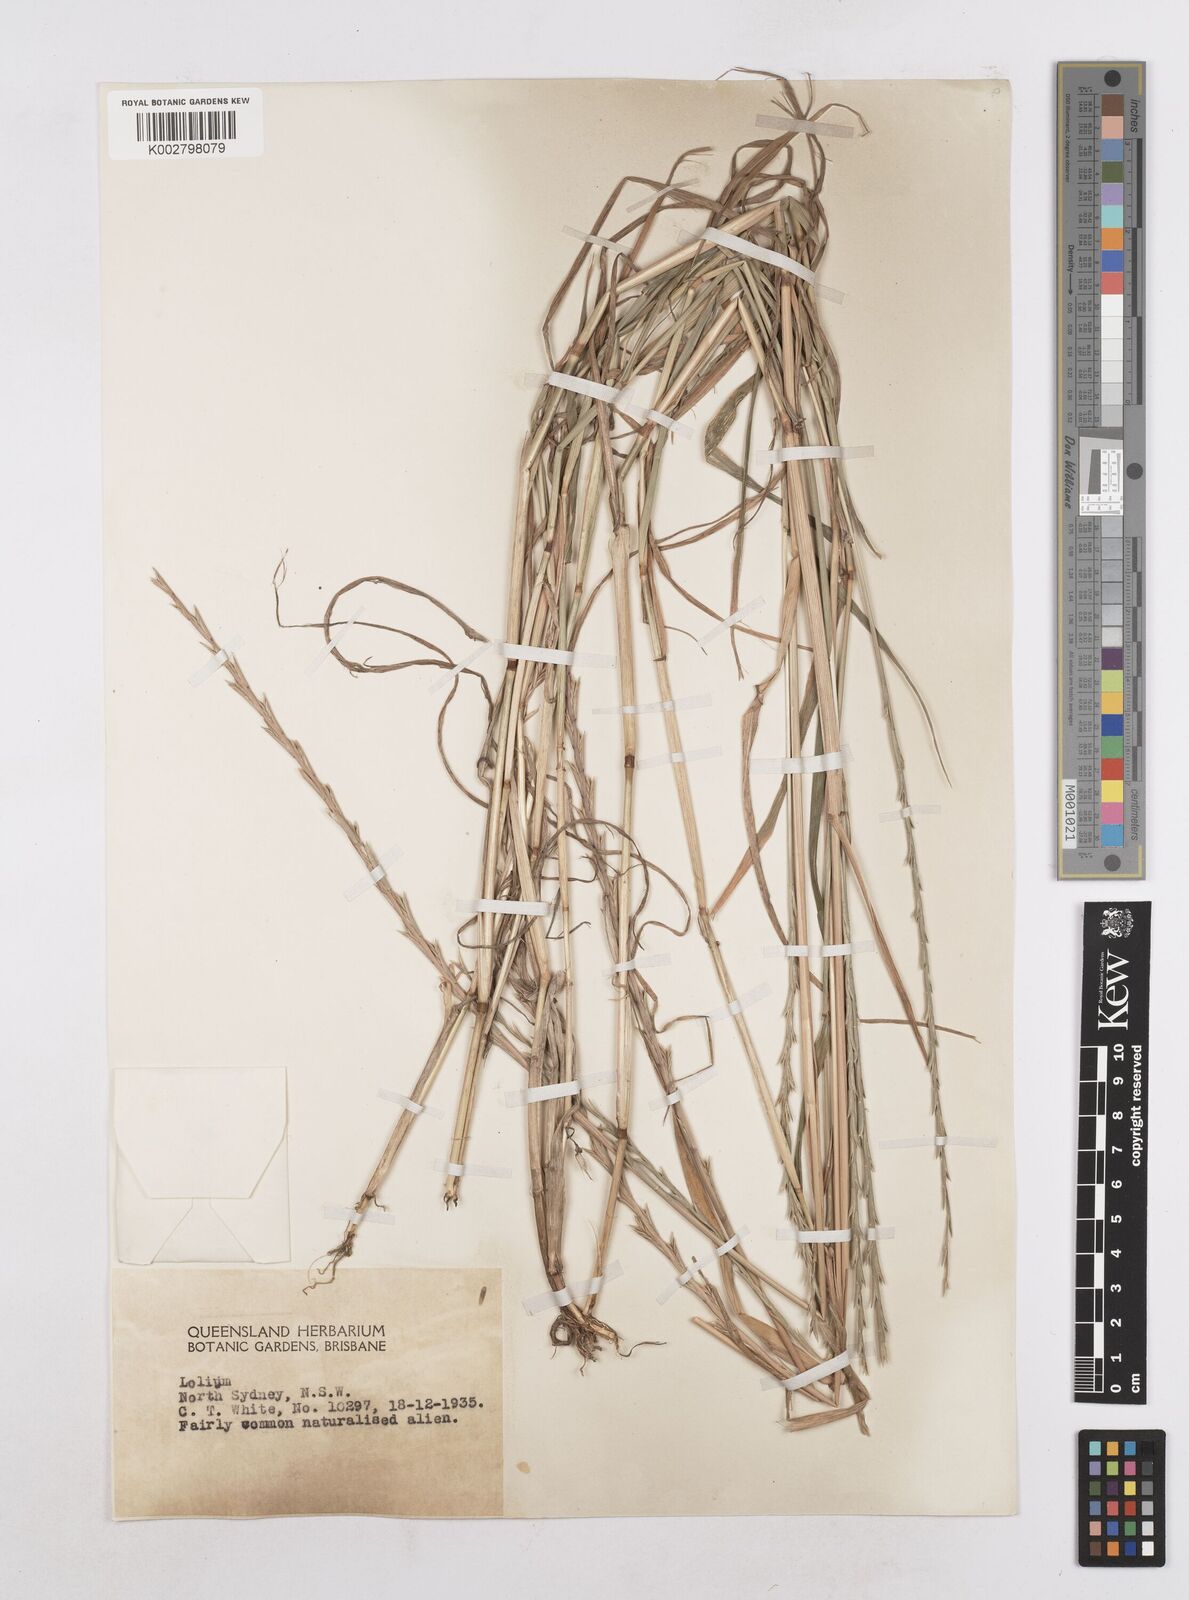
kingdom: Plantae
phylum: Tracheophyta
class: Liliopsida
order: Poales
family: Poaceae
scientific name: Poaceae
